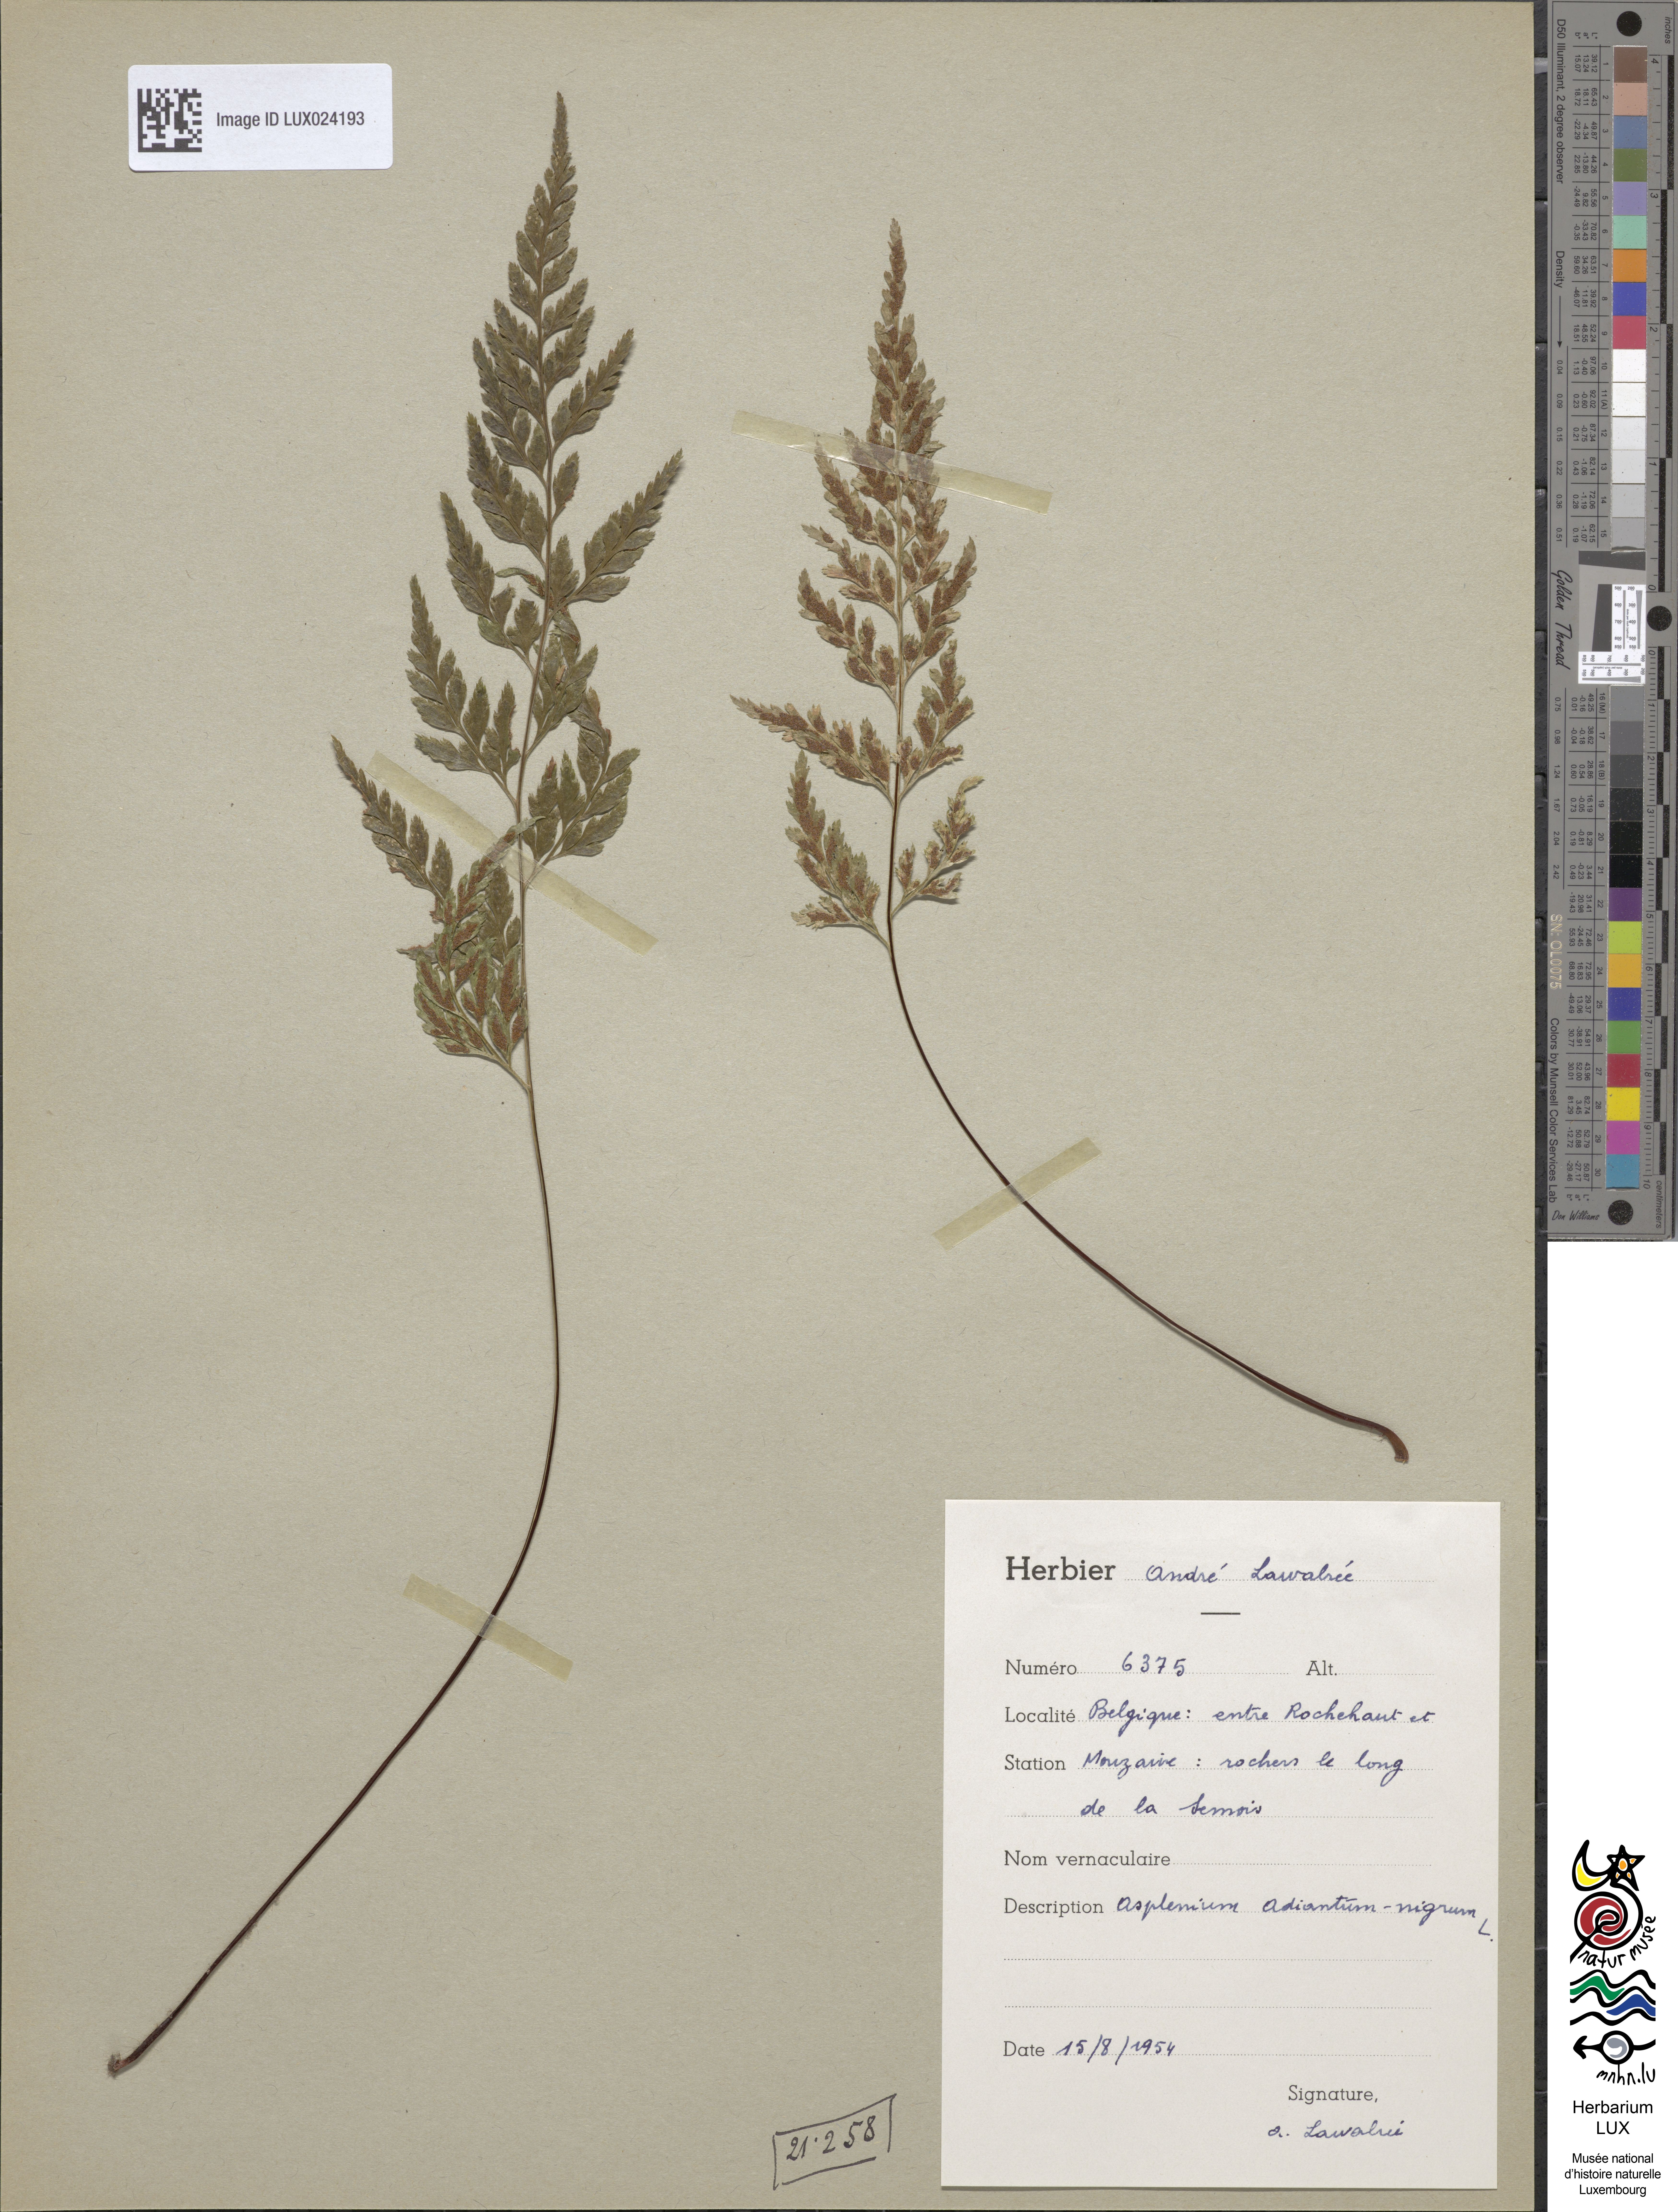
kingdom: Plantae
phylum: Tracheophyta
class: Polypodiopsida
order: Polypodiales
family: Aspleniaceae
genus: Asplenium
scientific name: Asplenium adiantum-nigrum
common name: Black spleenwort
